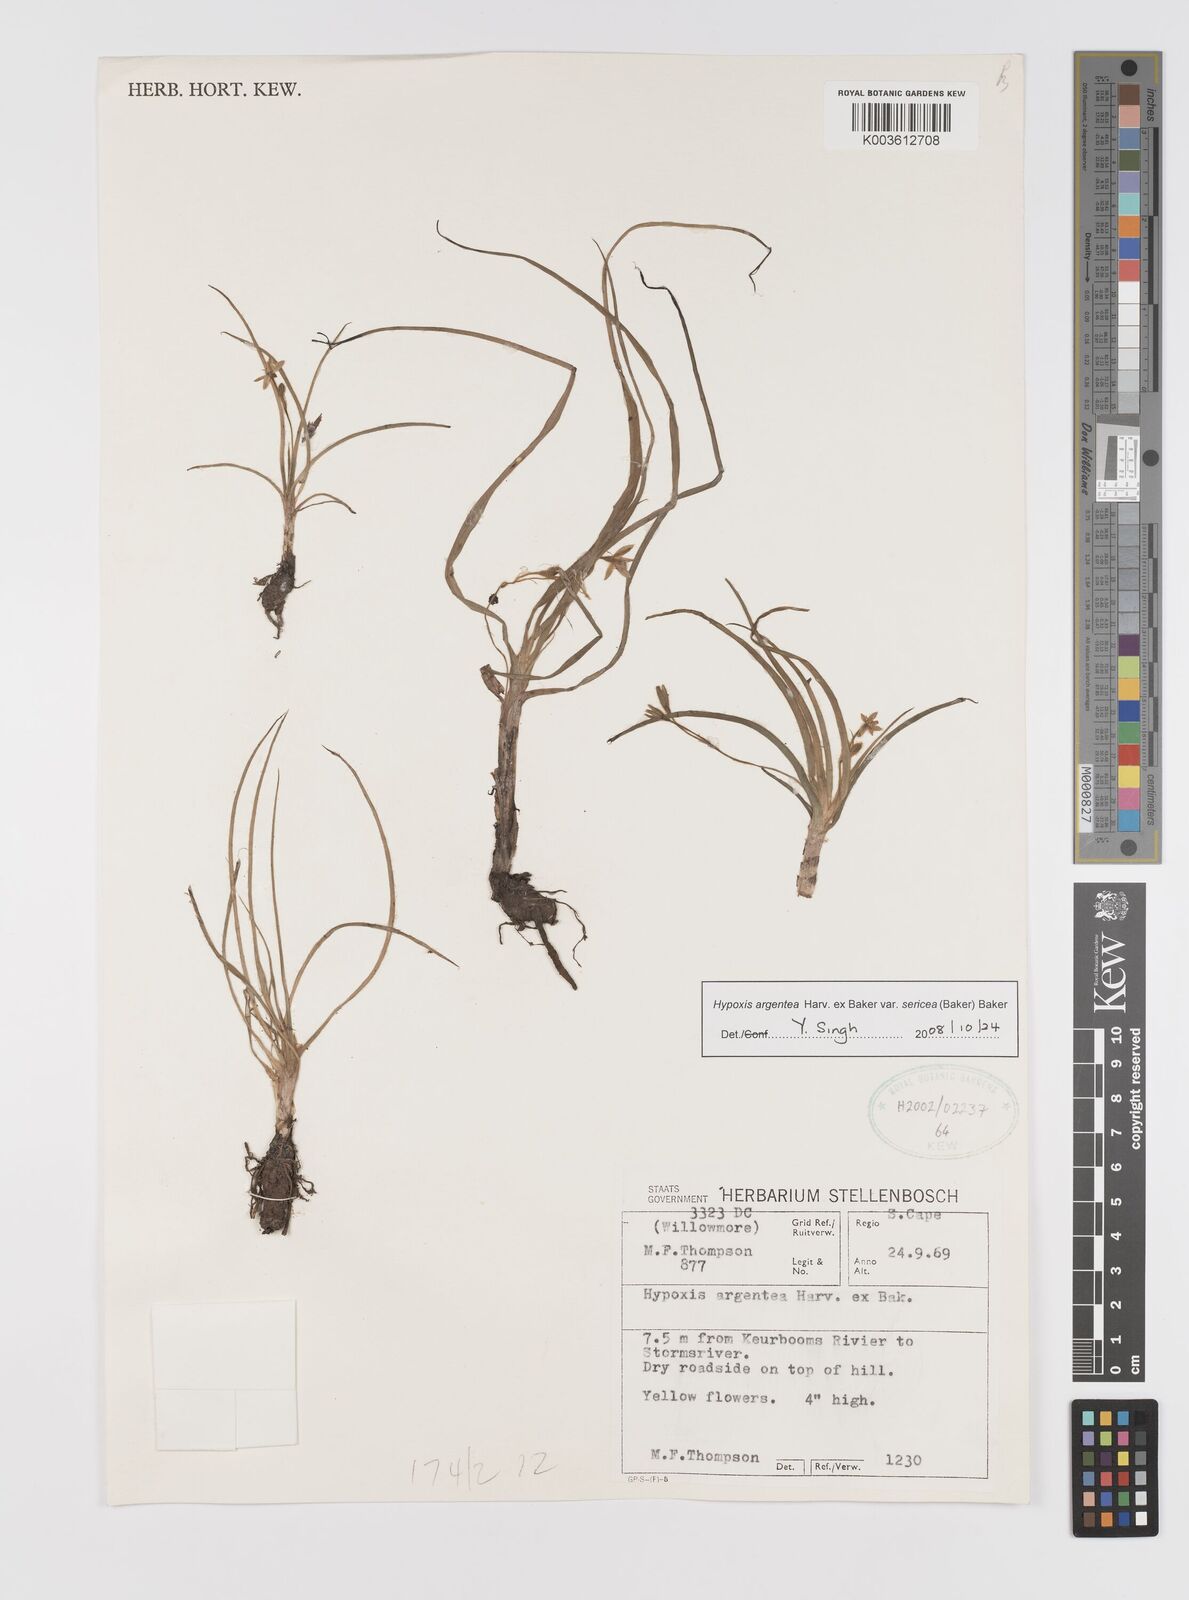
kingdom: Plantae
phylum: Tracheophyta
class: Liliopsida
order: Asparagales
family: Hypoxidaceae
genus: Hypoxis
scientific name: Hypoxis argentea
